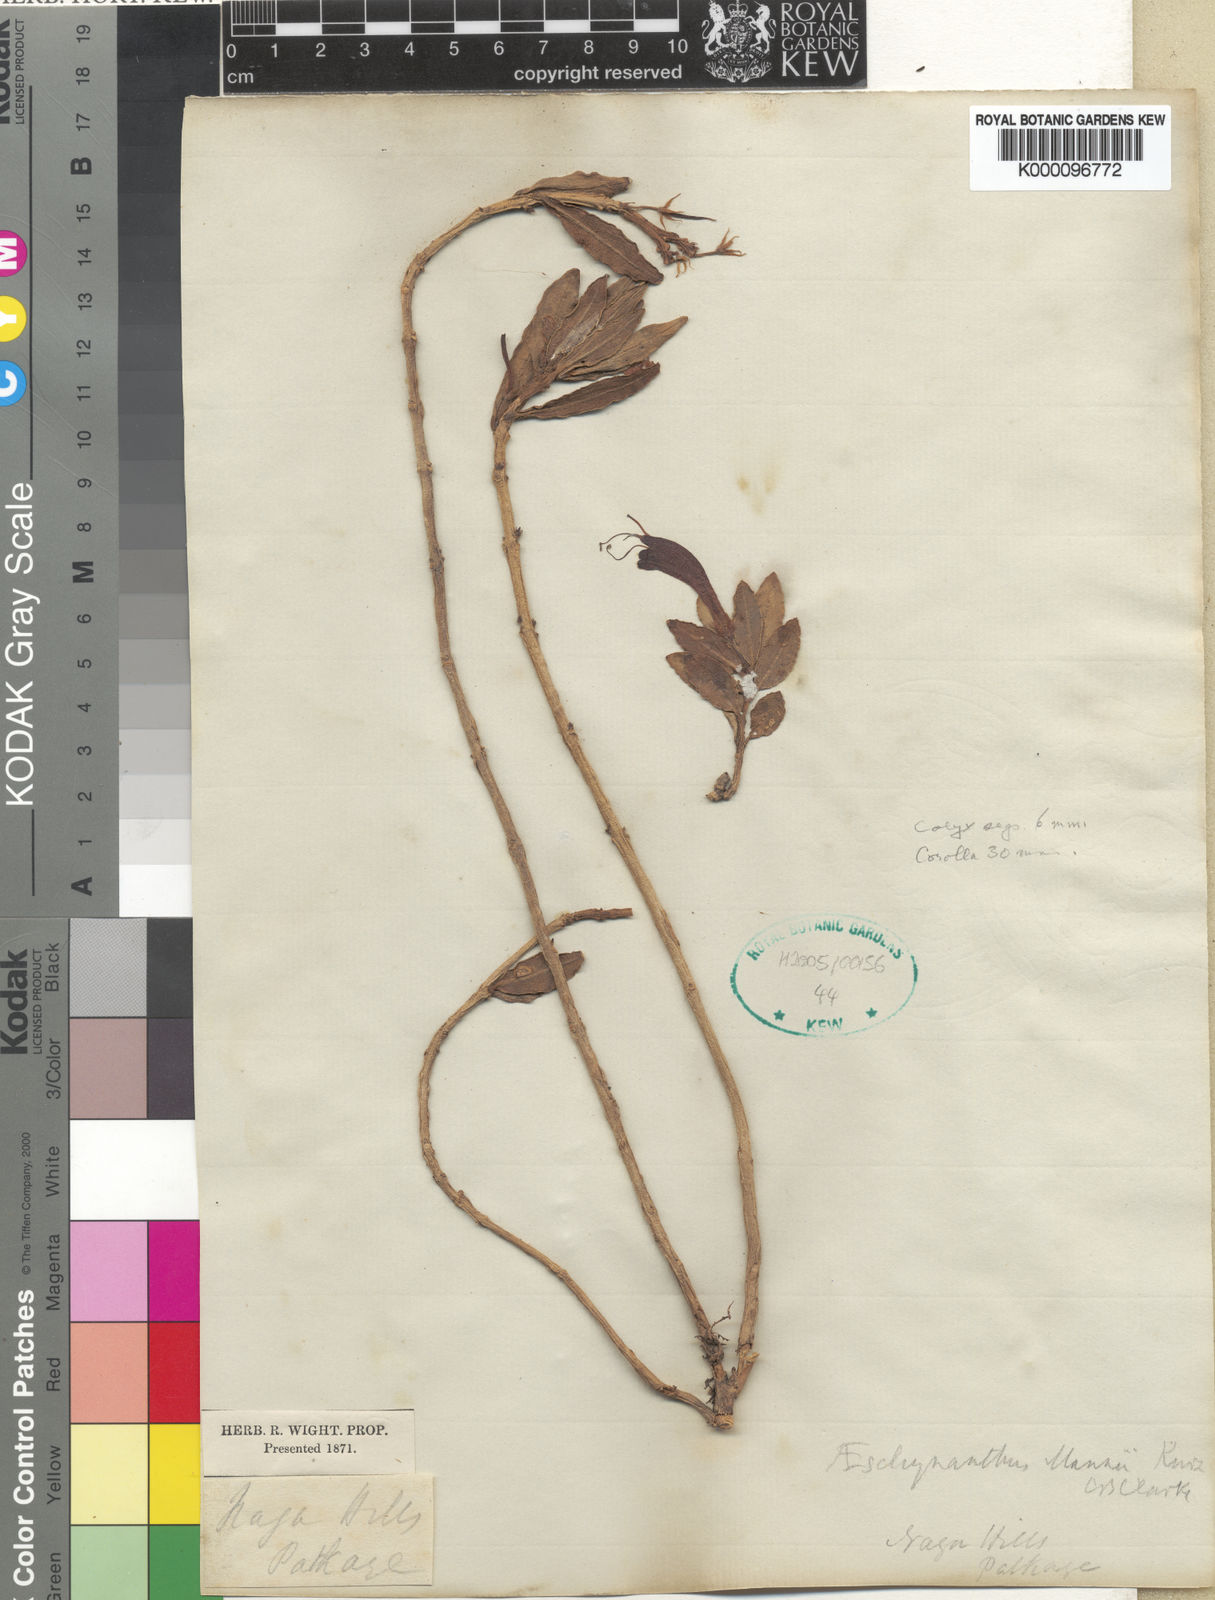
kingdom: Plantae
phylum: Tracheophyta
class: Magnoliopsida
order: Lamiales
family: Gesneriaceae
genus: Aeschynanthus
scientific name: Aeschynanthus mannii
